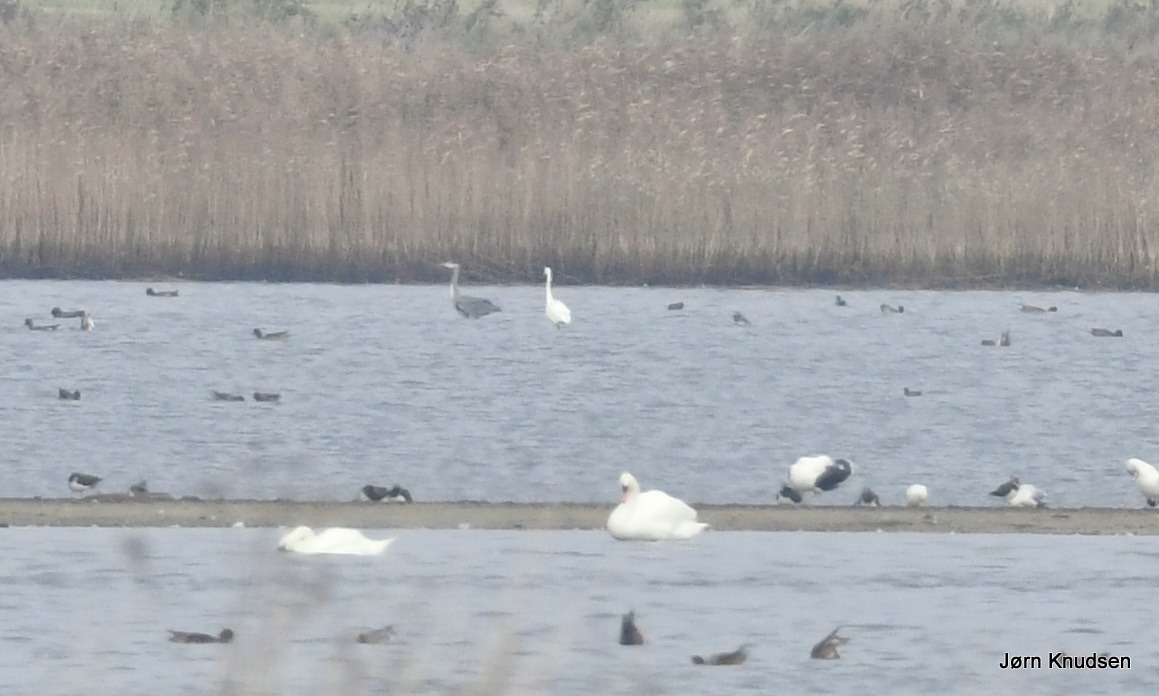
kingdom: Animalia
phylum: Chordata
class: Aves
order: Pelecaniformes
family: Ardeidae
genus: Ardea
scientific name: Ardea cinerea
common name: Fiskehejre
